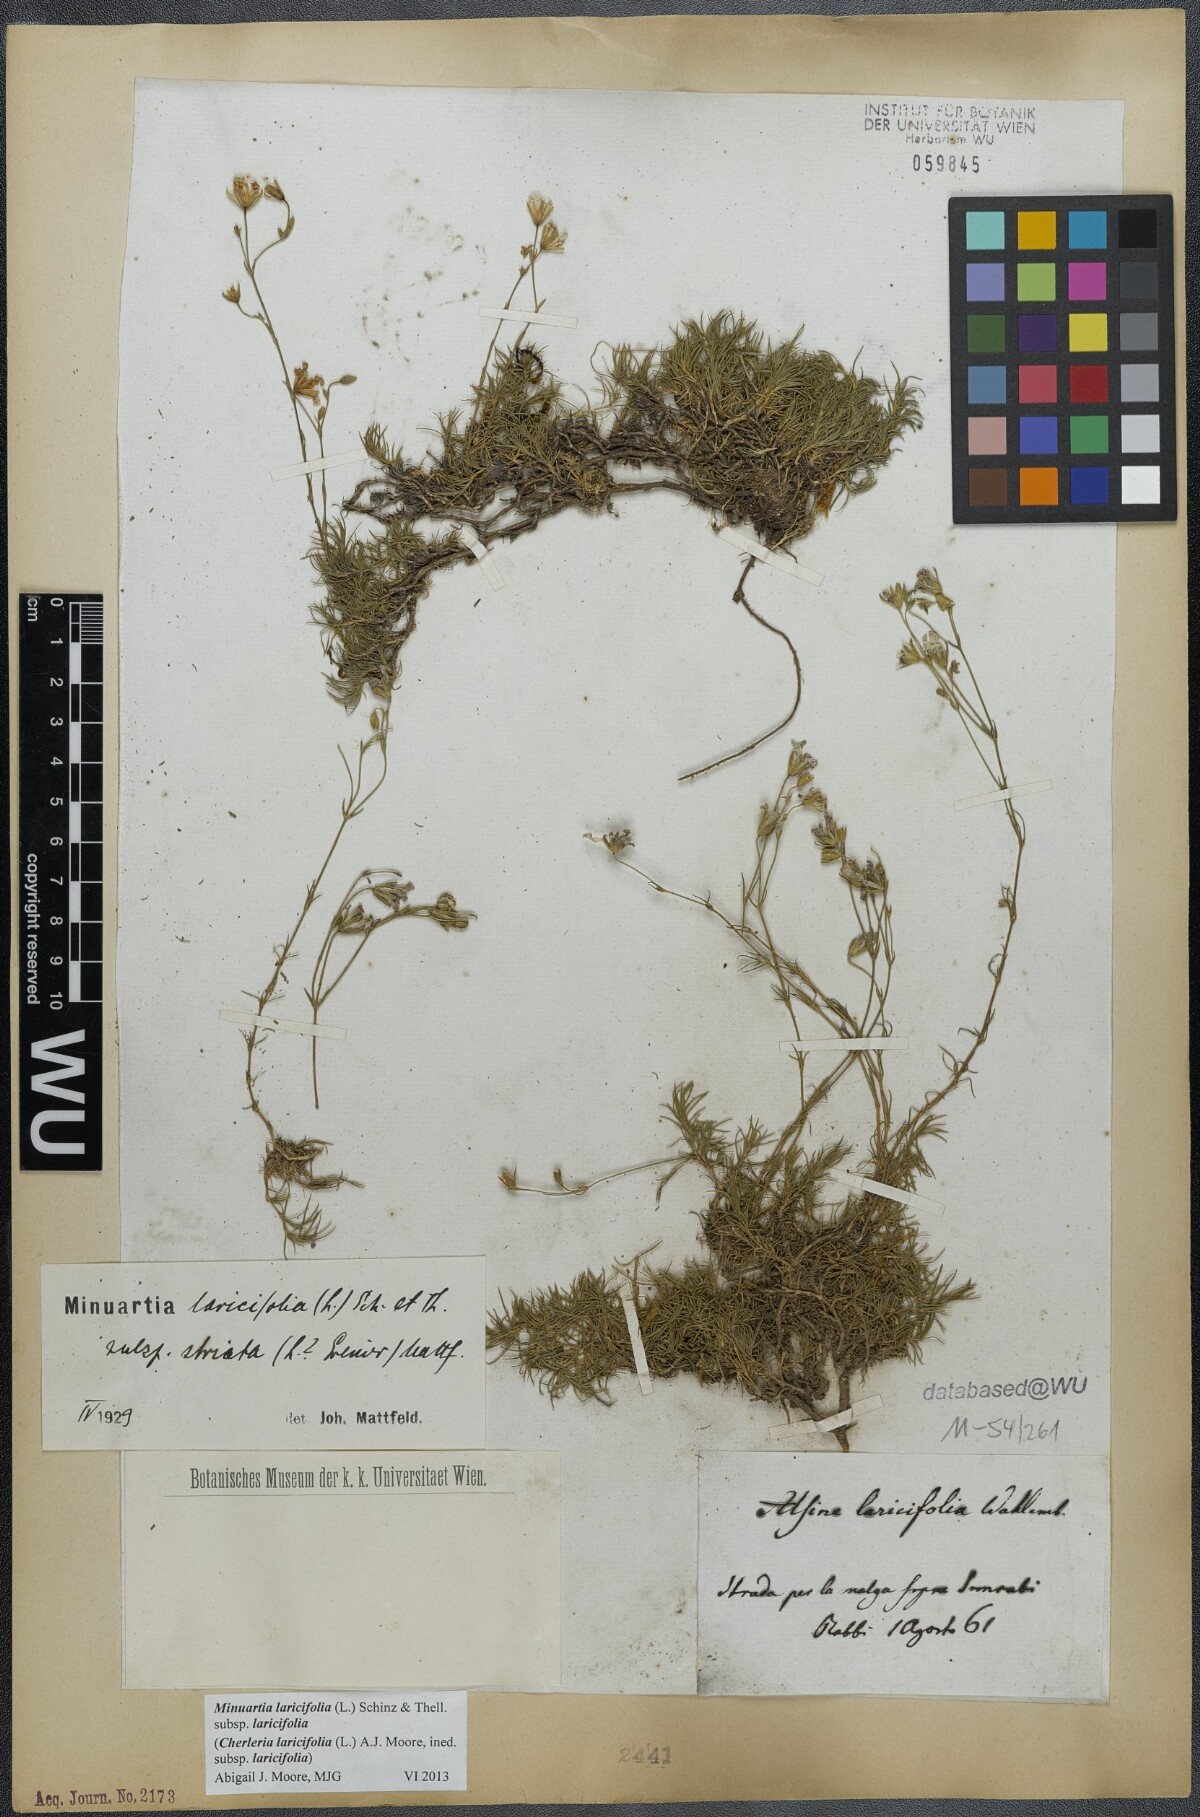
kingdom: Plantae
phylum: Tracheophyta
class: Magnoliopsida
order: Caryophyllales
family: Caryophyllaceae
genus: Cherleria
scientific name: Cherleria laricifolia
